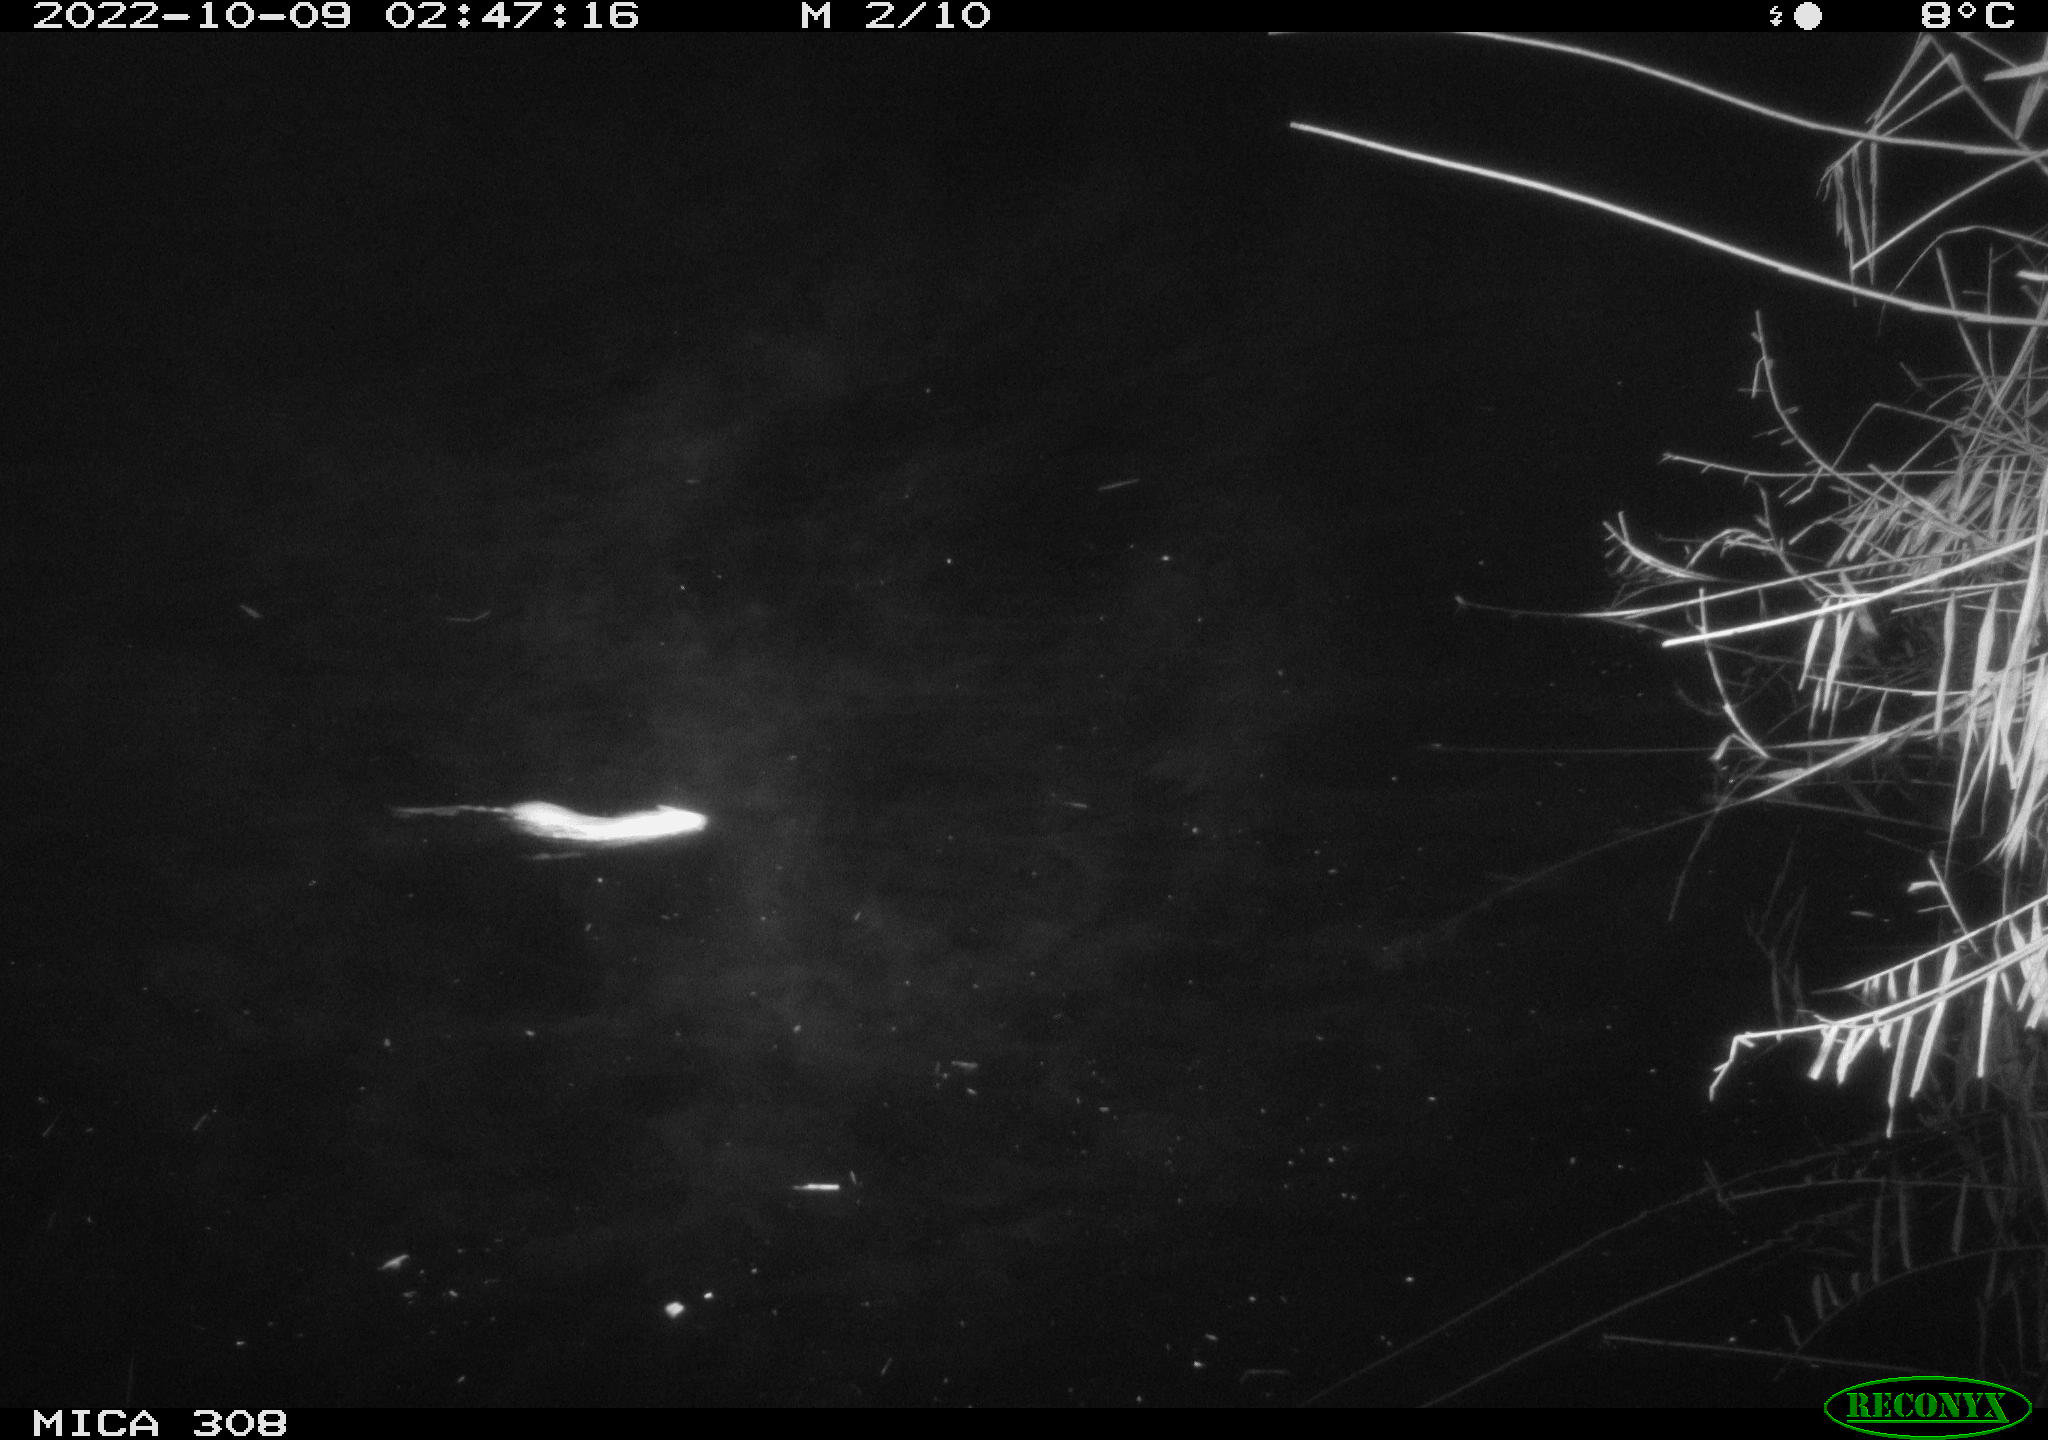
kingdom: Animalia
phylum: Chordata
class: Mammalia
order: Rodentia
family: Muridae
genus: Rattus
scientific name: Rattus norvegicus
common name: Brown rat
